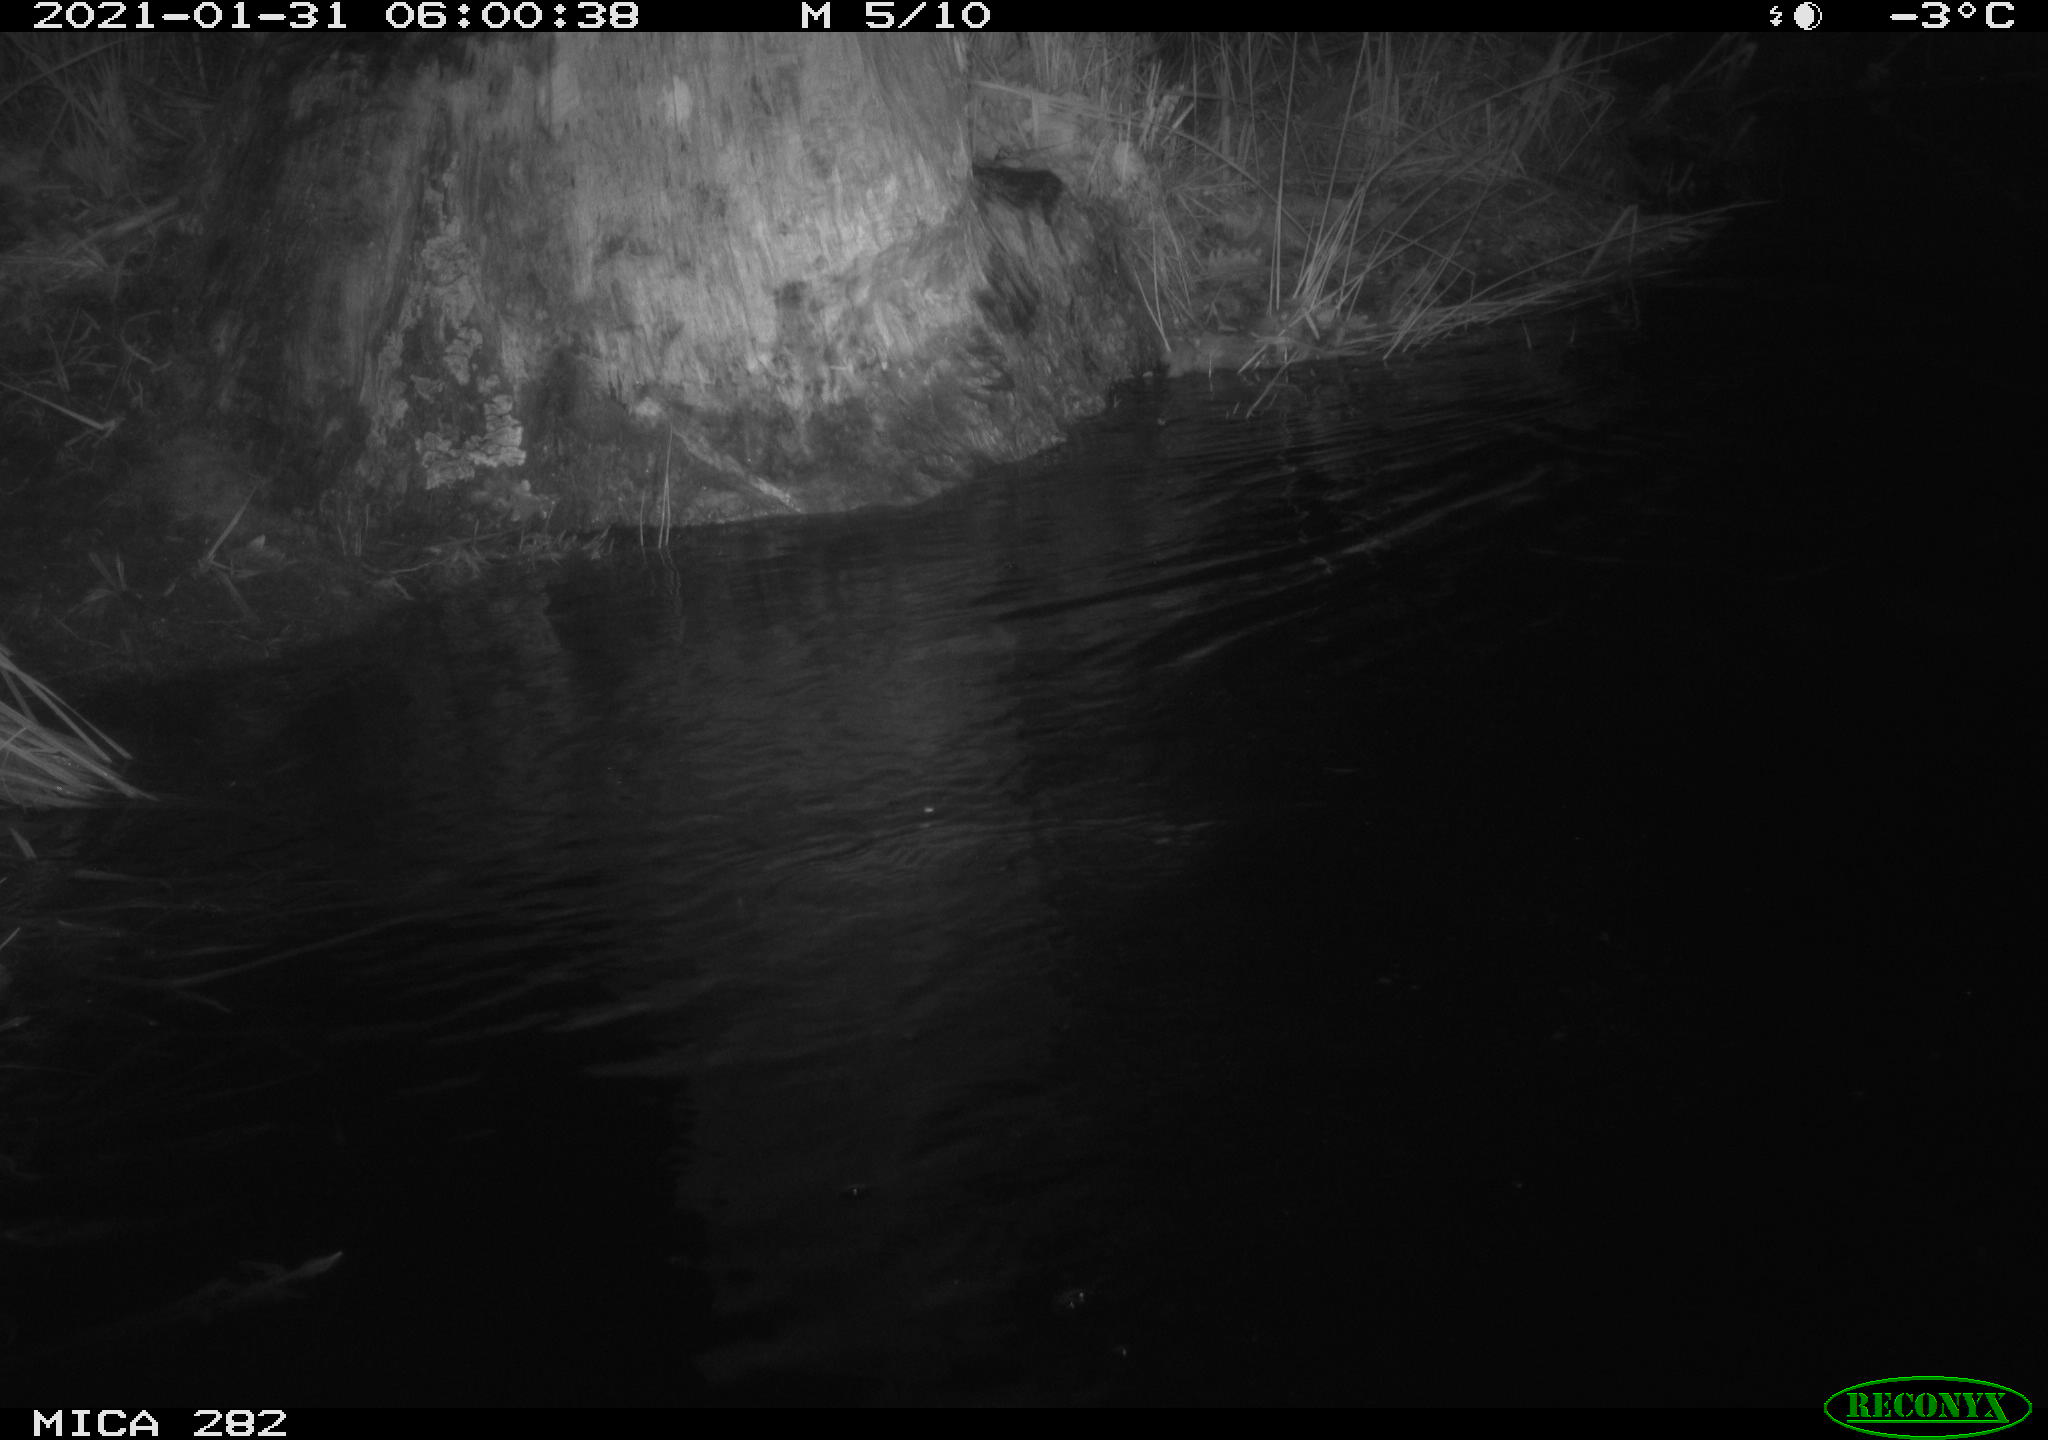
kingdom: Animalia
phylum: Chordata
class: Mammalia
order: Rodentia
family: Castoridae
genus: Castor
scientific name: Castor fiber
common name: Eurasian beaver
